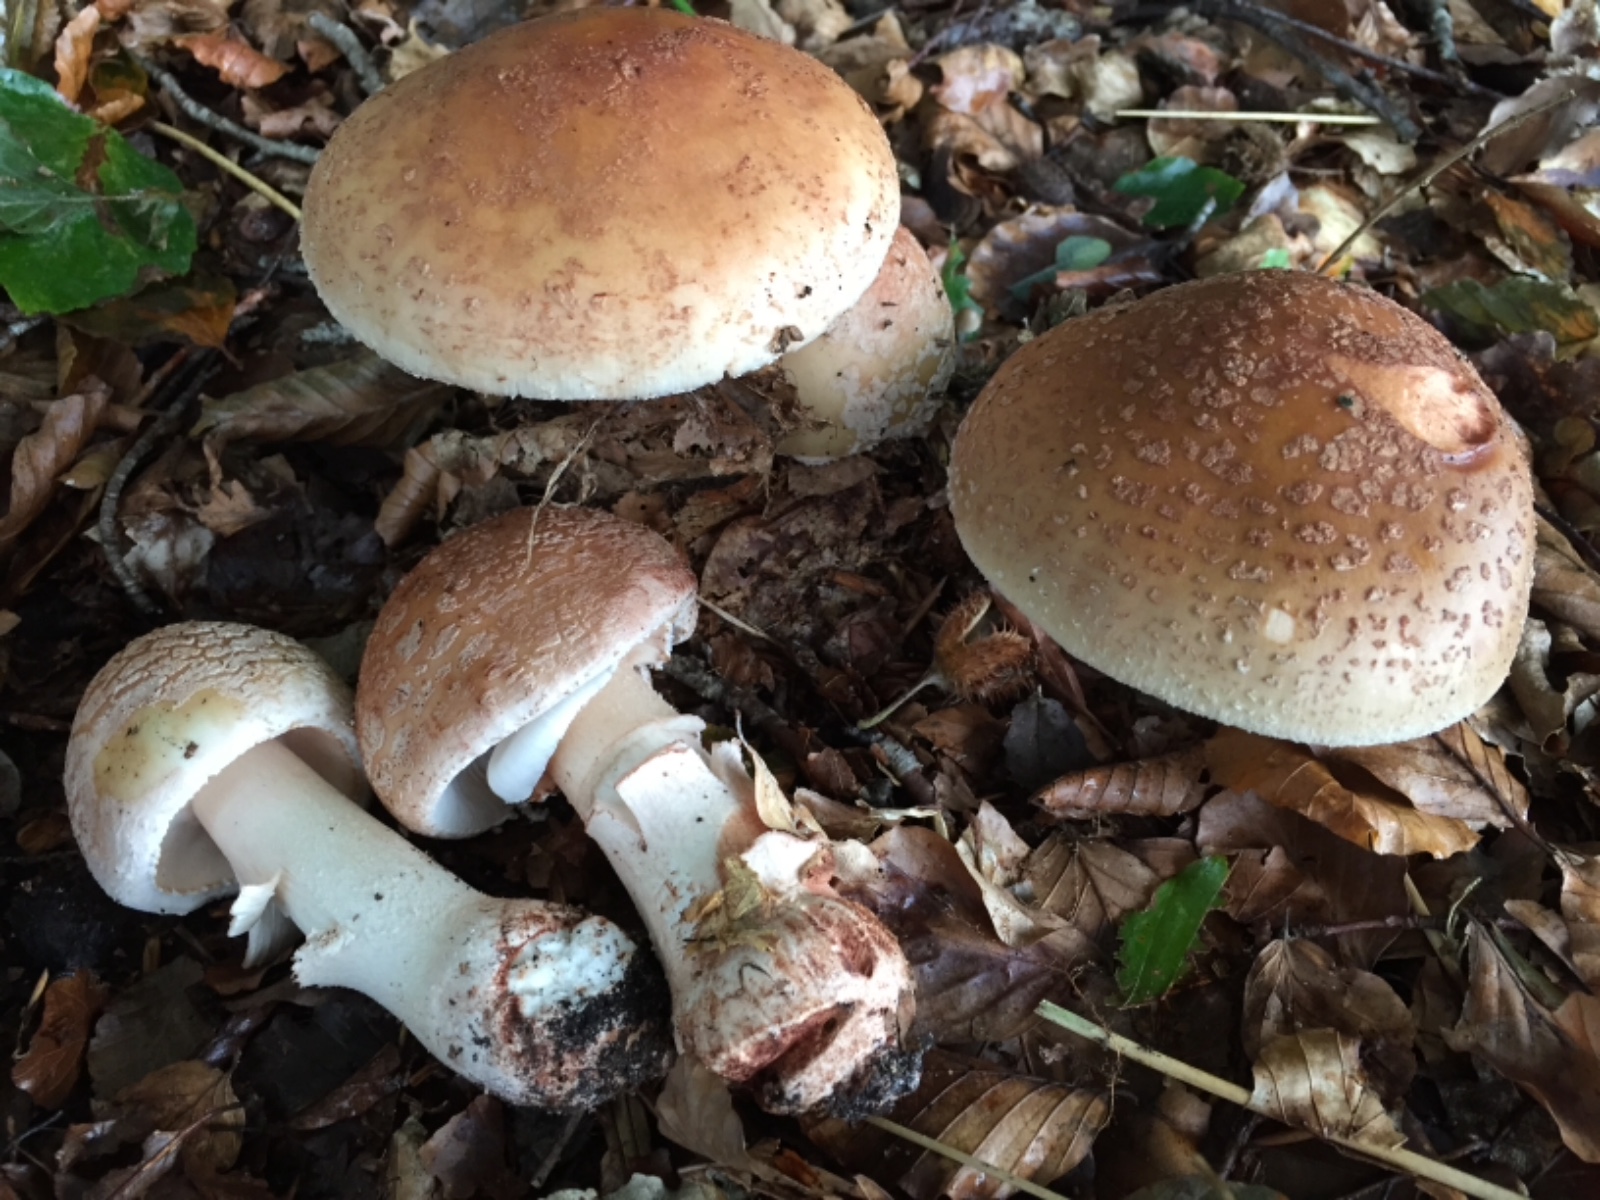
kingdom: Fungi
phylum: Basidiomycota
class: Agaricomycetes
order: Agaricales
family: Amanitaceae
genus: Amanita
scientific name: Amanita rubescens
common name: rødmende fluesvamp
